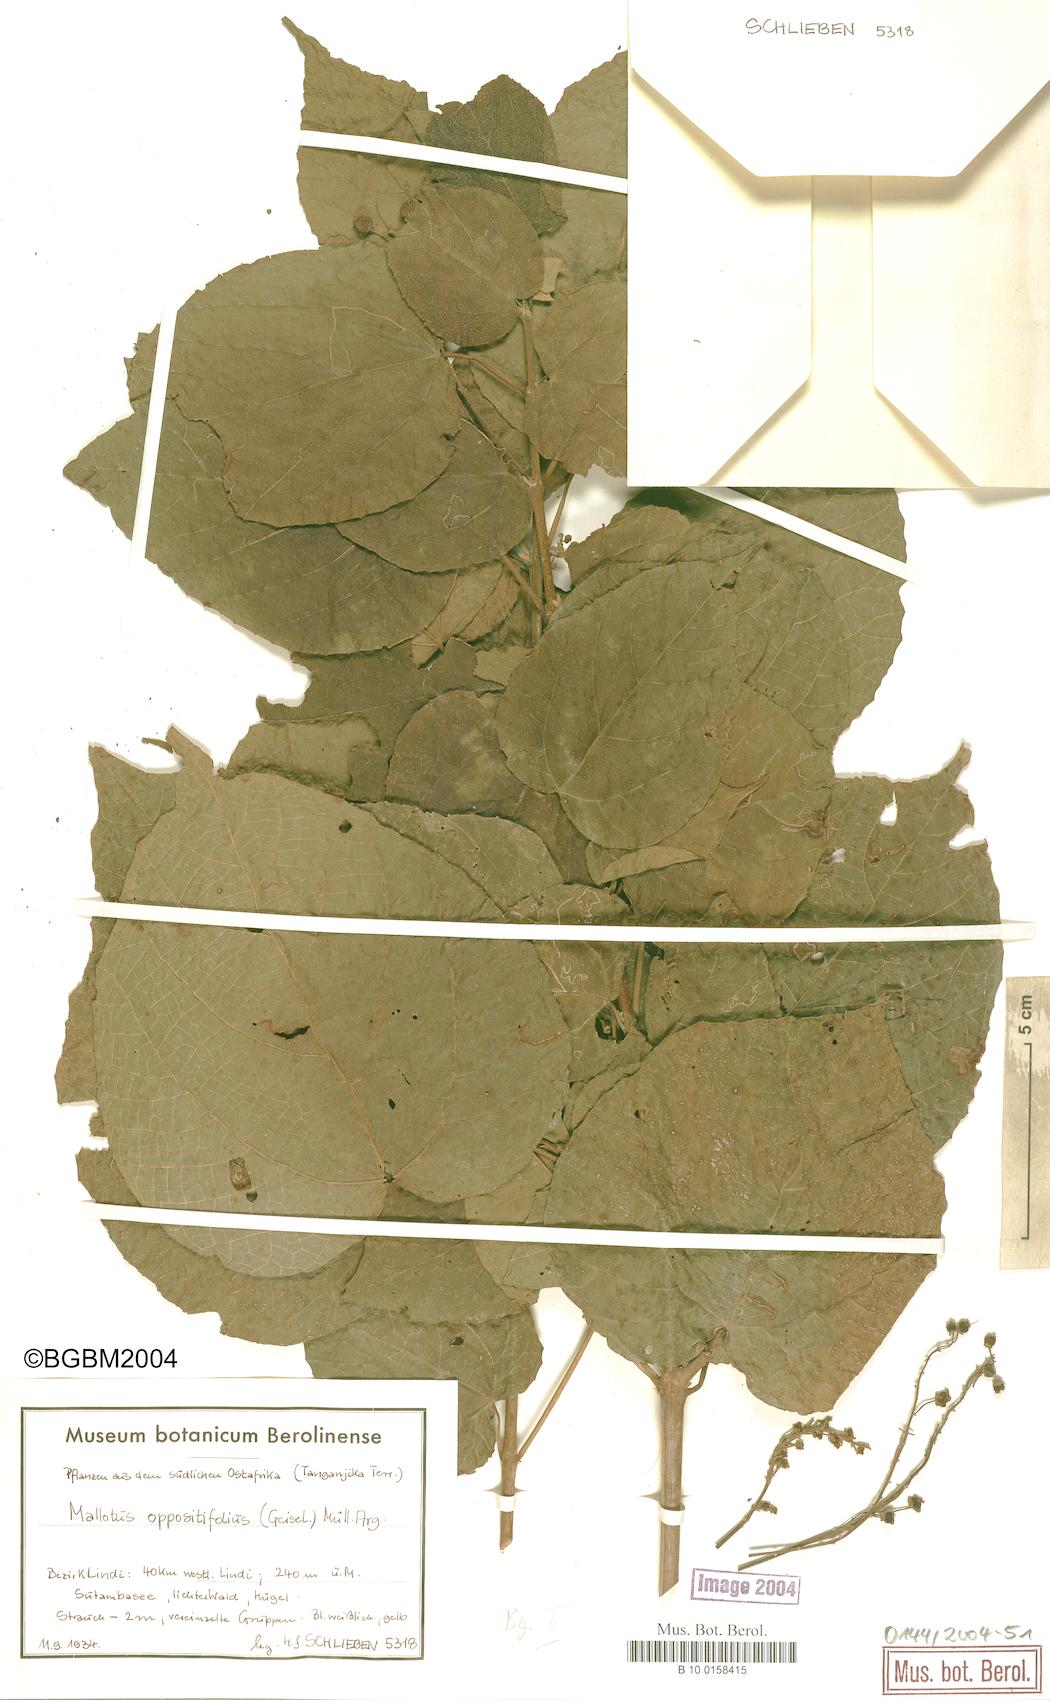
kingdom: Plantae
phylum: Tracheophyta
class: Magnoliopsida
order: Malpighiales
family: Euphorbiaceae
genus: Mallotus
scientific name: Mallotus oppositifolius
